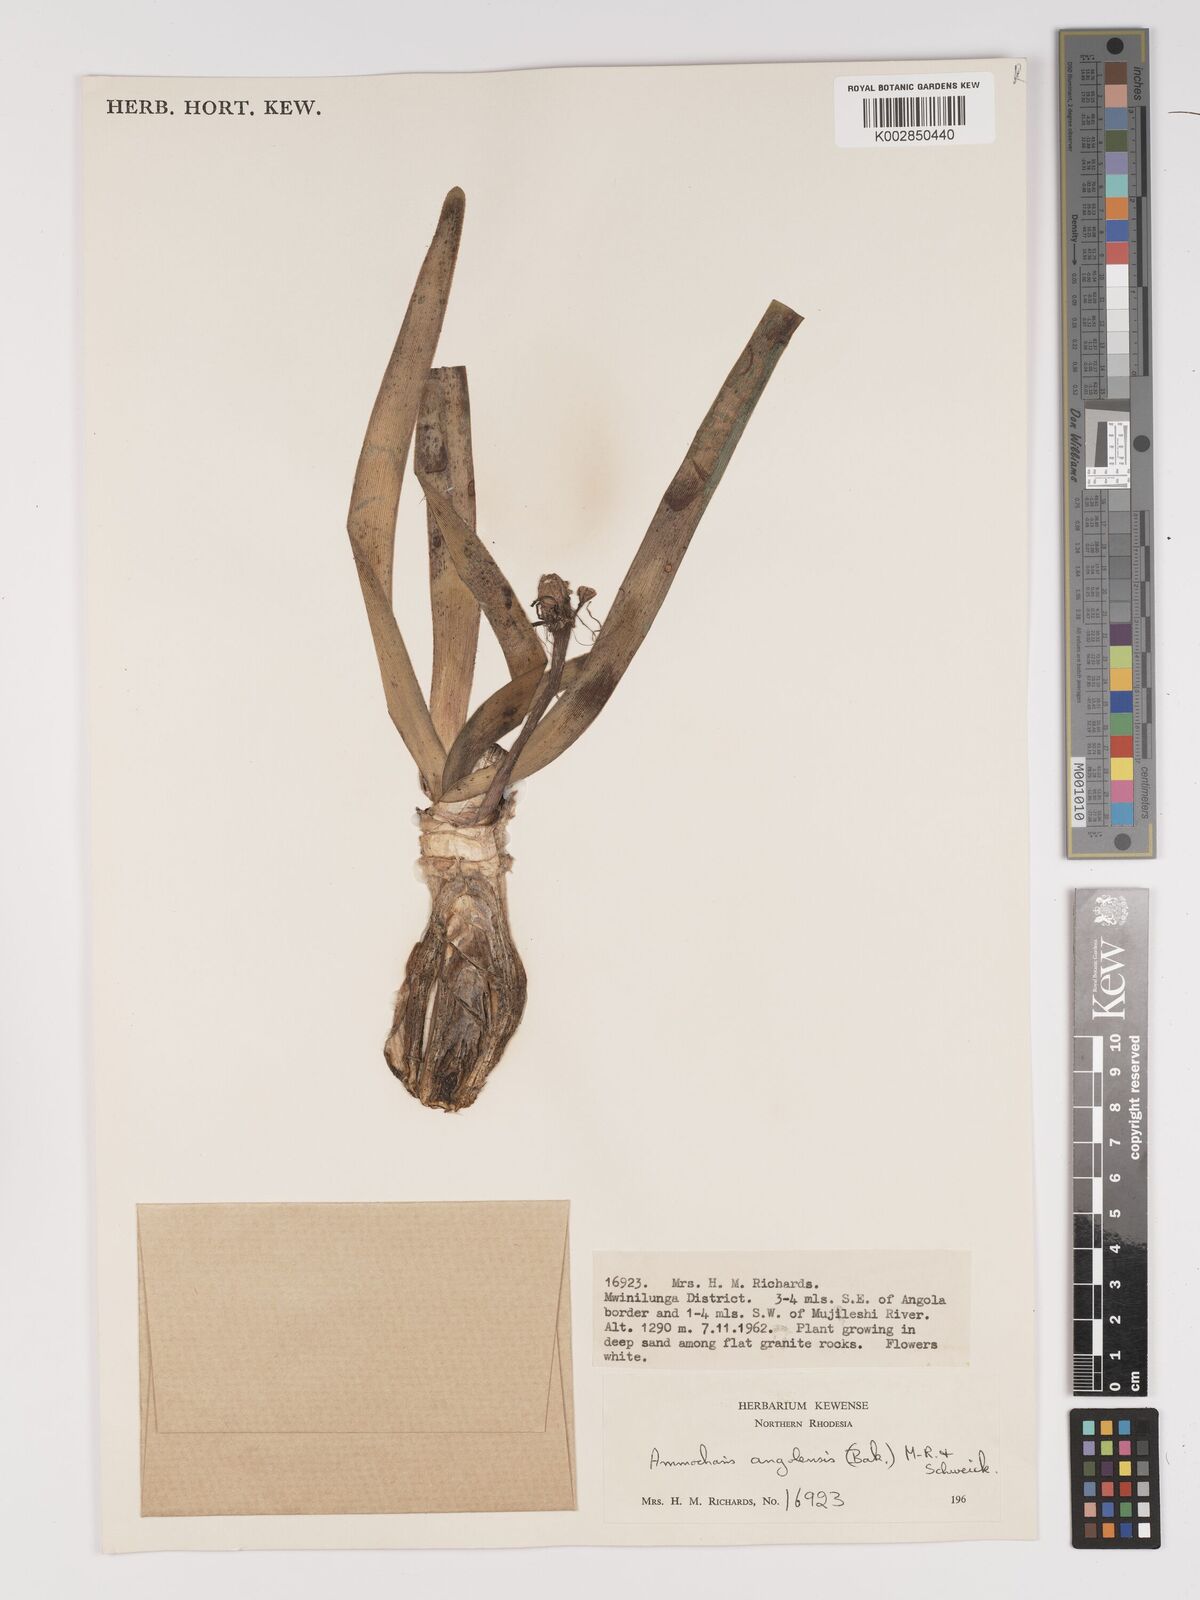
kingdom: Plantae
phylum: Tracheophyta
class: Liliopsida
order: Asparagales
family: Amaryllidaceae
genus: Ammocharis
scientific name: Ammocharis angolensis
